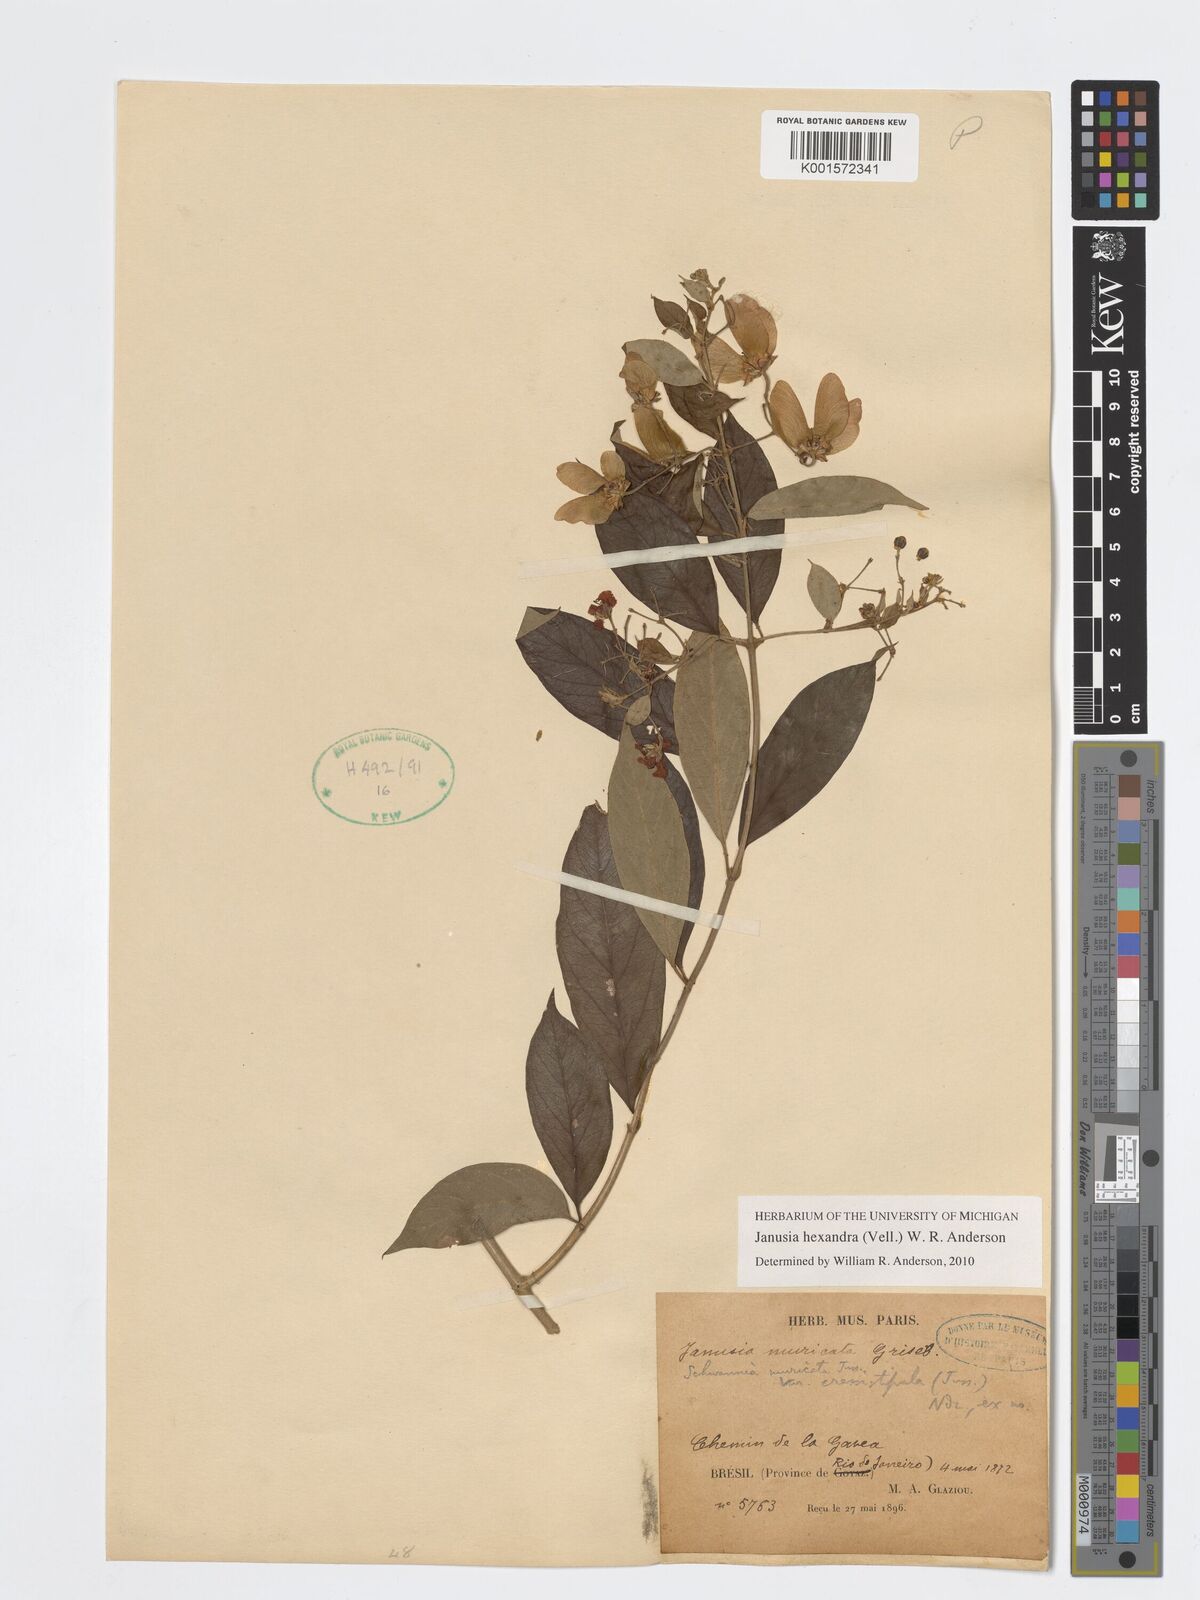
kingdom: Plantae
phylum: Tracheophyta
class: Magnoliopsida
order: Malpighiales
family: Malpighiaceae
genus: Janusia
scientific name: Janusia hexandra
